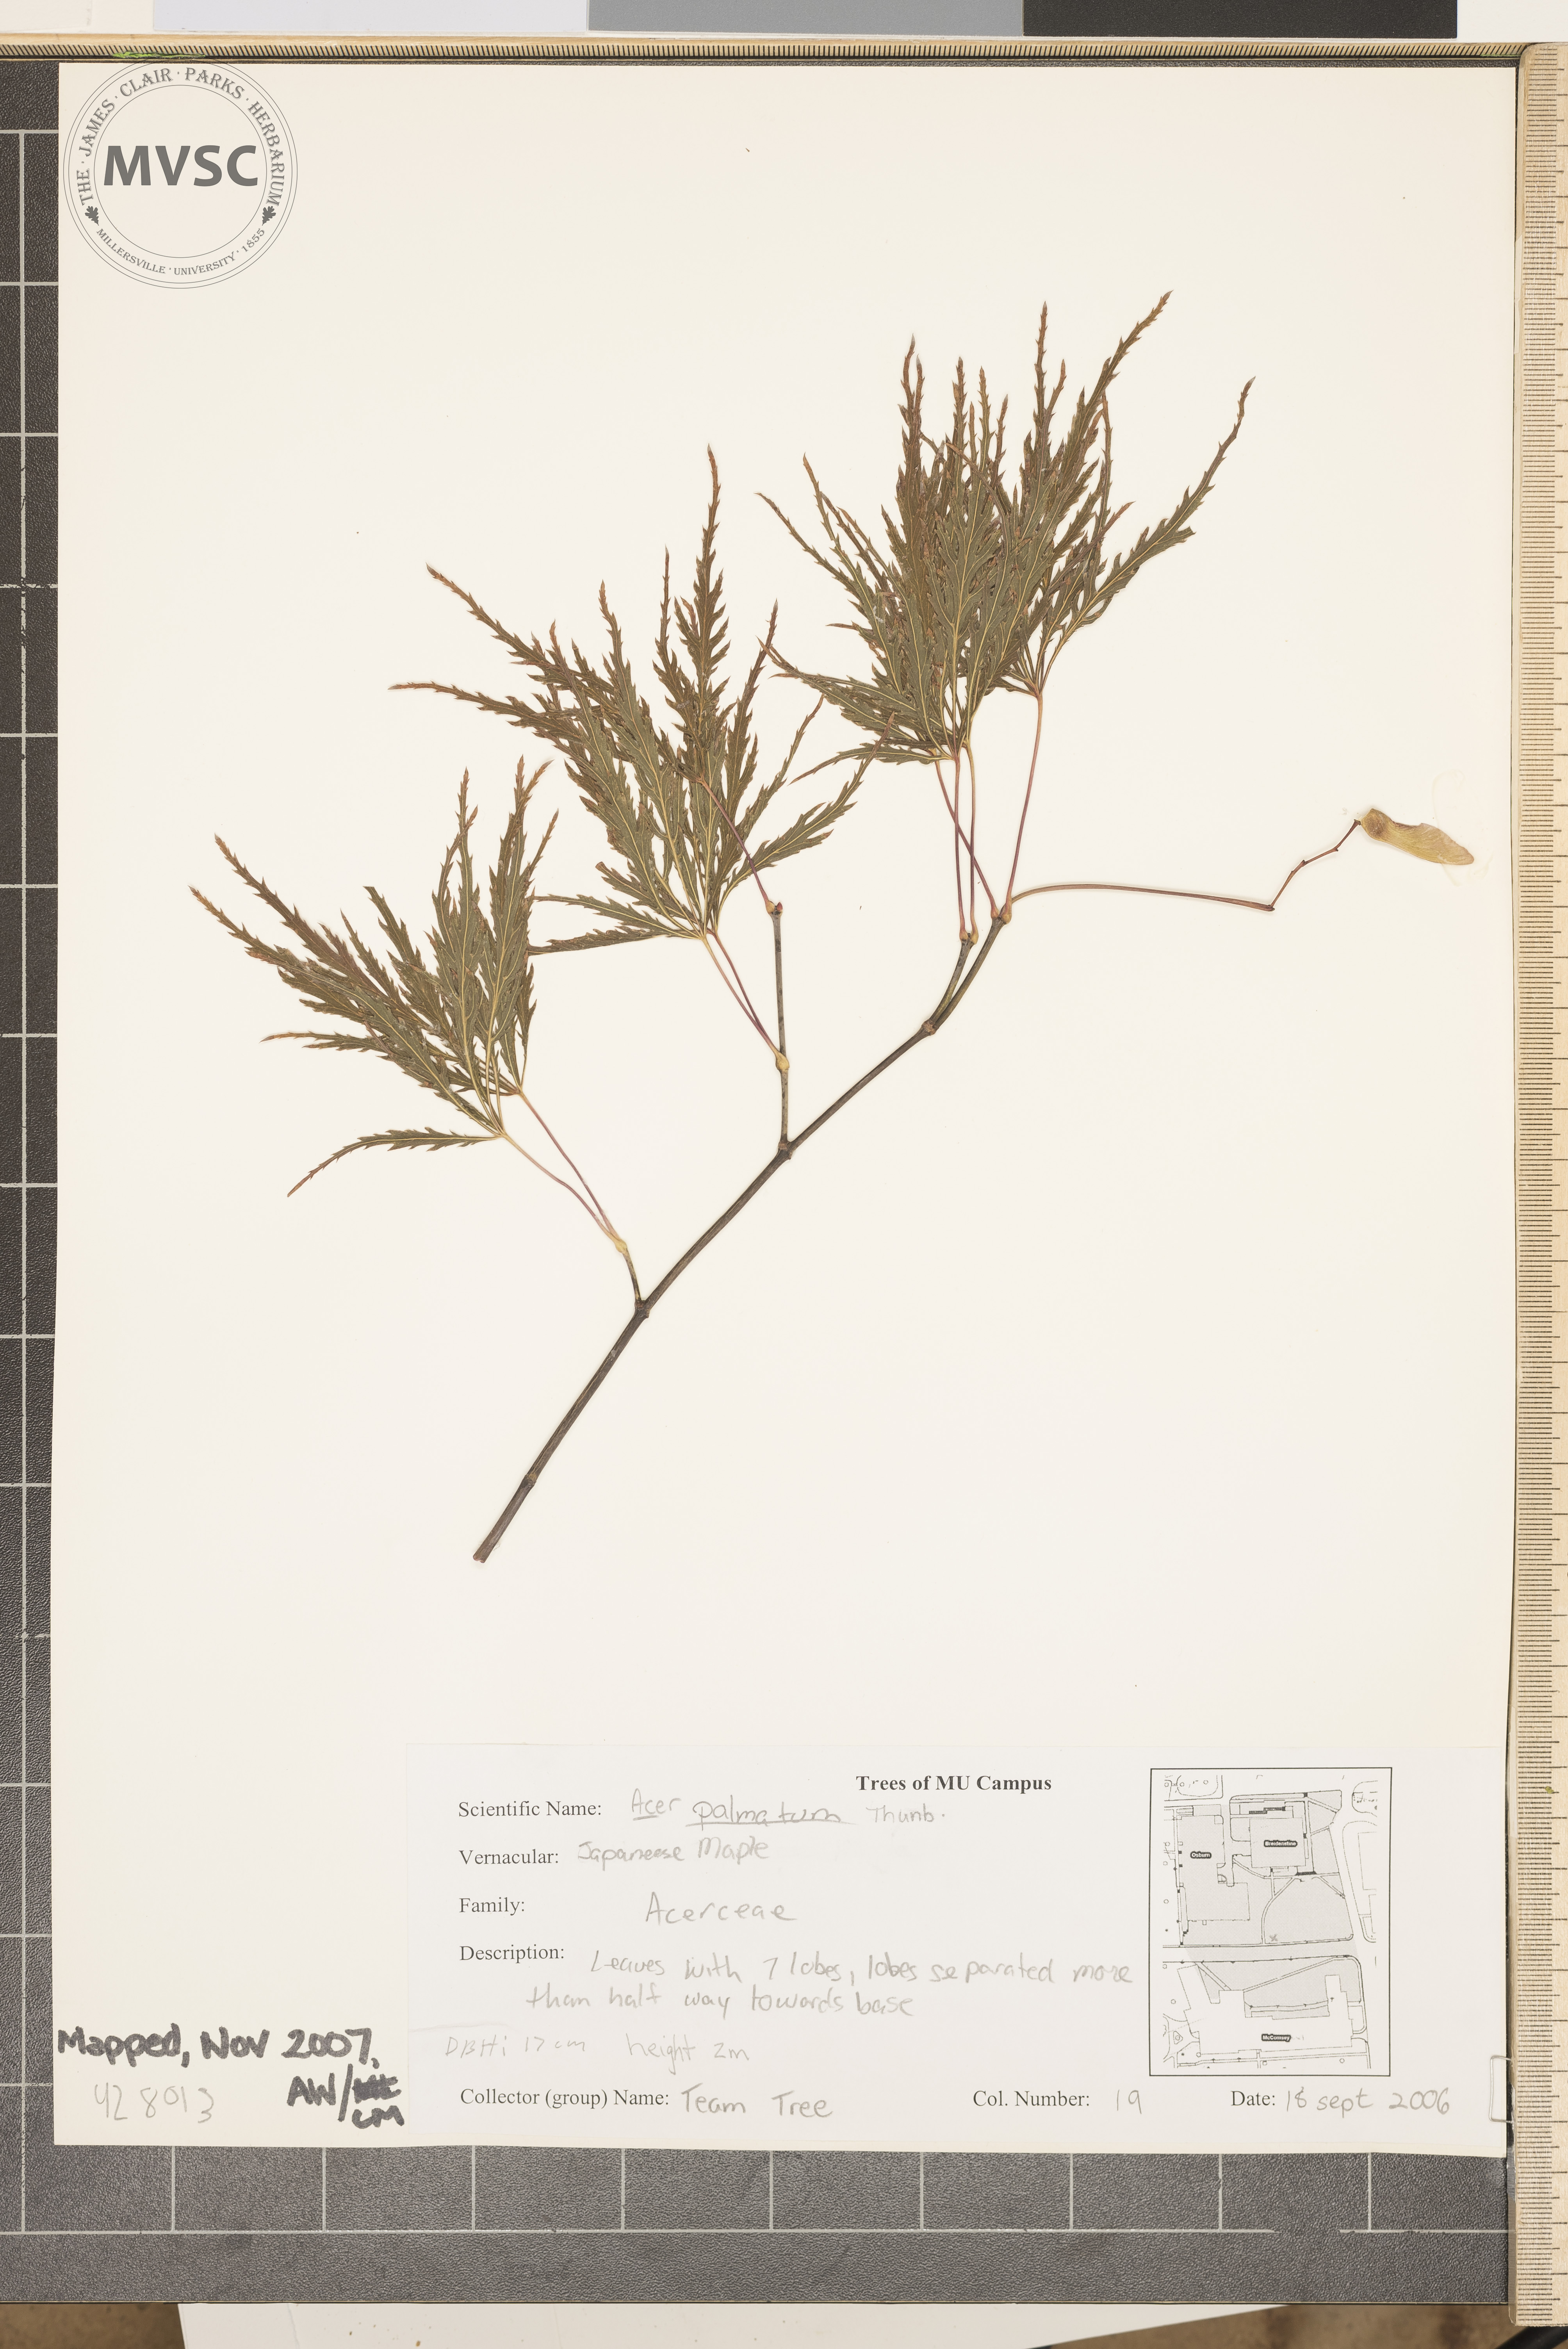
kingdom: Plantae
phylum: Tracheophyta
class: Magnoliopsida
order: Sapindales
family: Sapindaceae
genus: Acer
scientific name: Acer palmatum
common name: Japanese Maple
